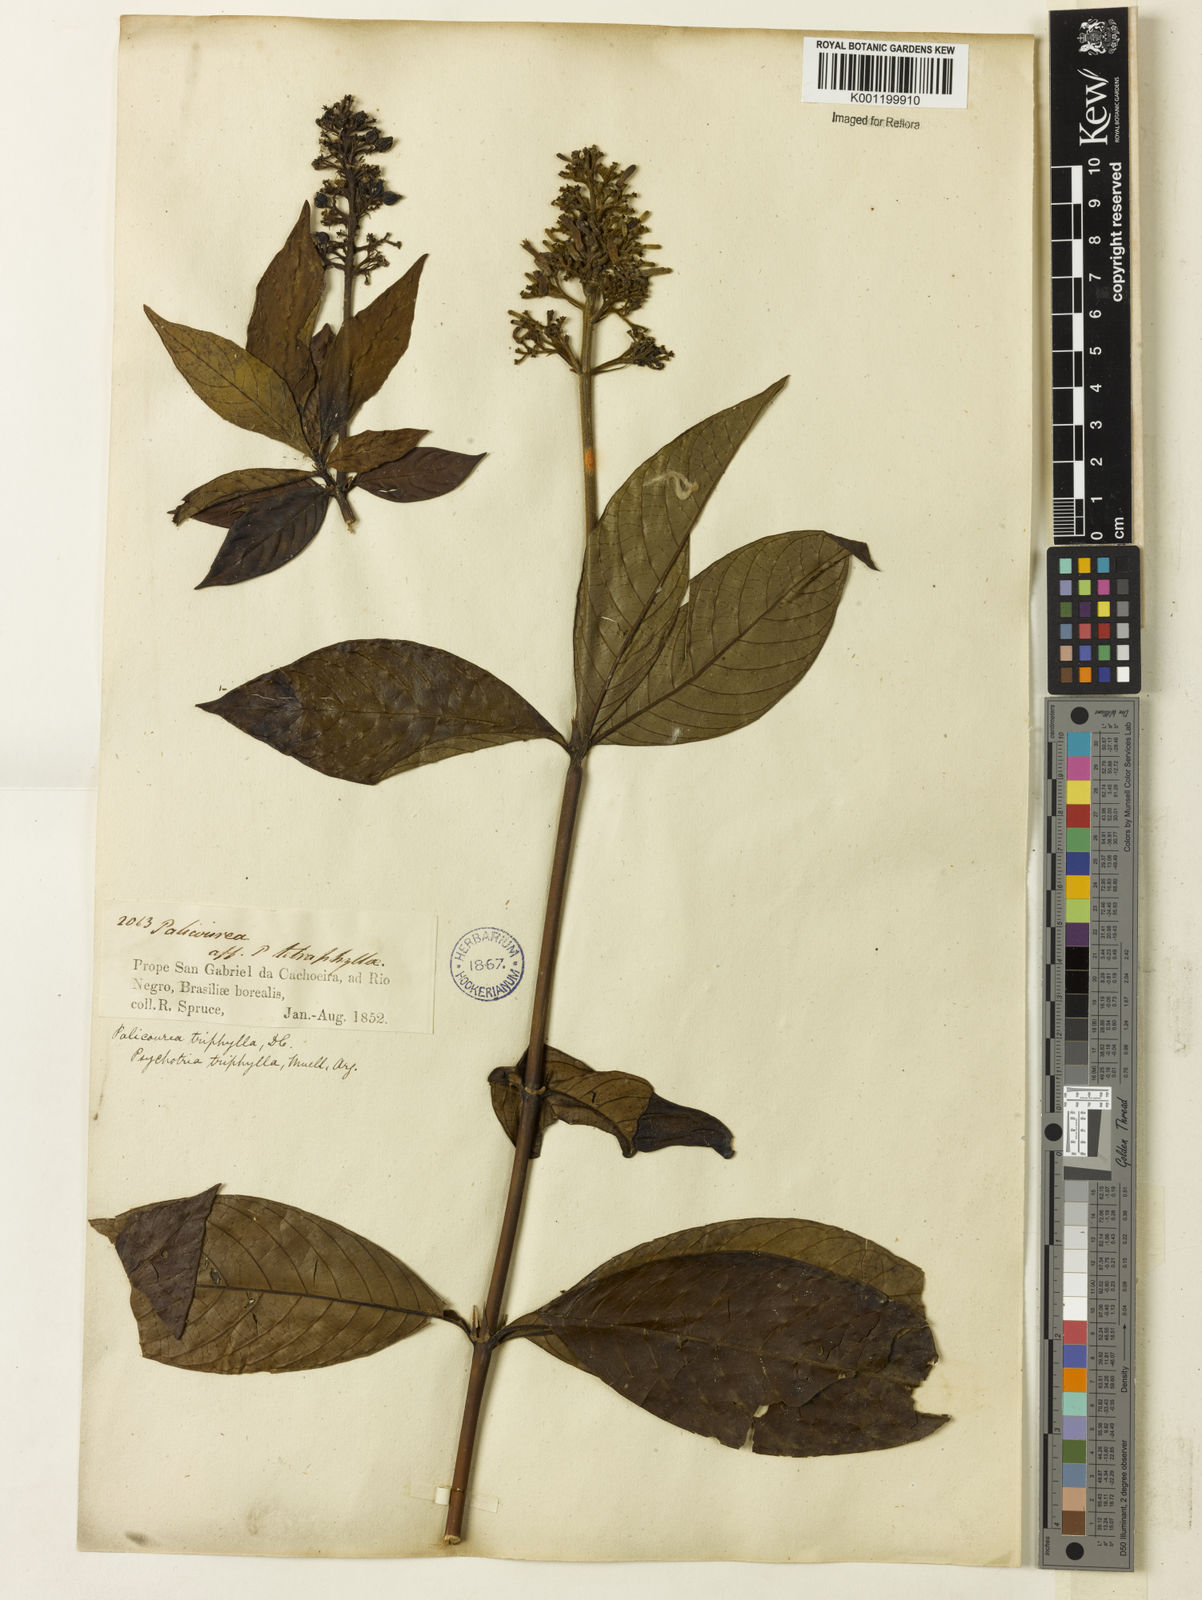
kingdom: Plantae
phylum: Tracheophyta
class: Magnoliopsida
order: Gentianales
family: Rubiaceae
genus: Palicourea
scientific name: Palicourea triphylla
